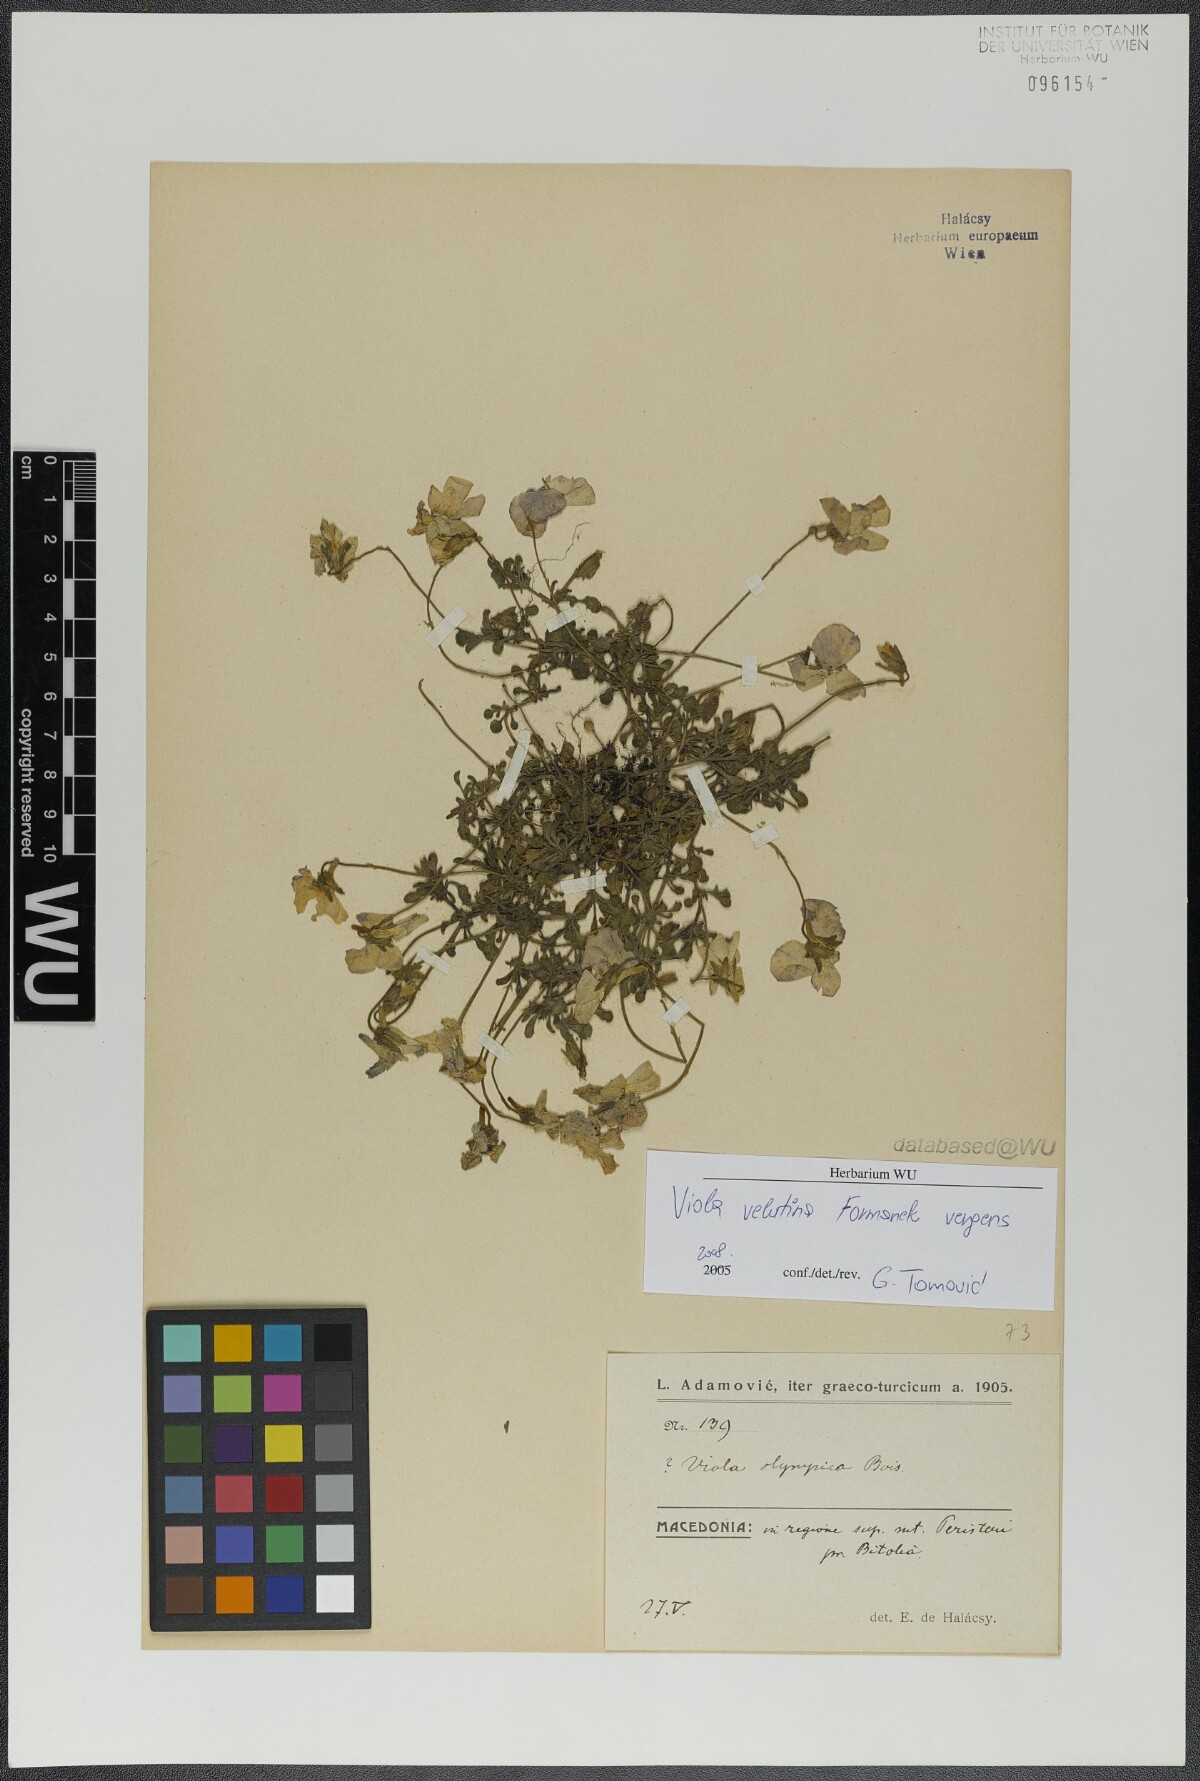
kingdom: Plantae
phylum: Tracheophyta
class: Magnoliopsida
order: Malpighiales
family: Violaceae
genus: Viola
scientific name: Viola velutina
